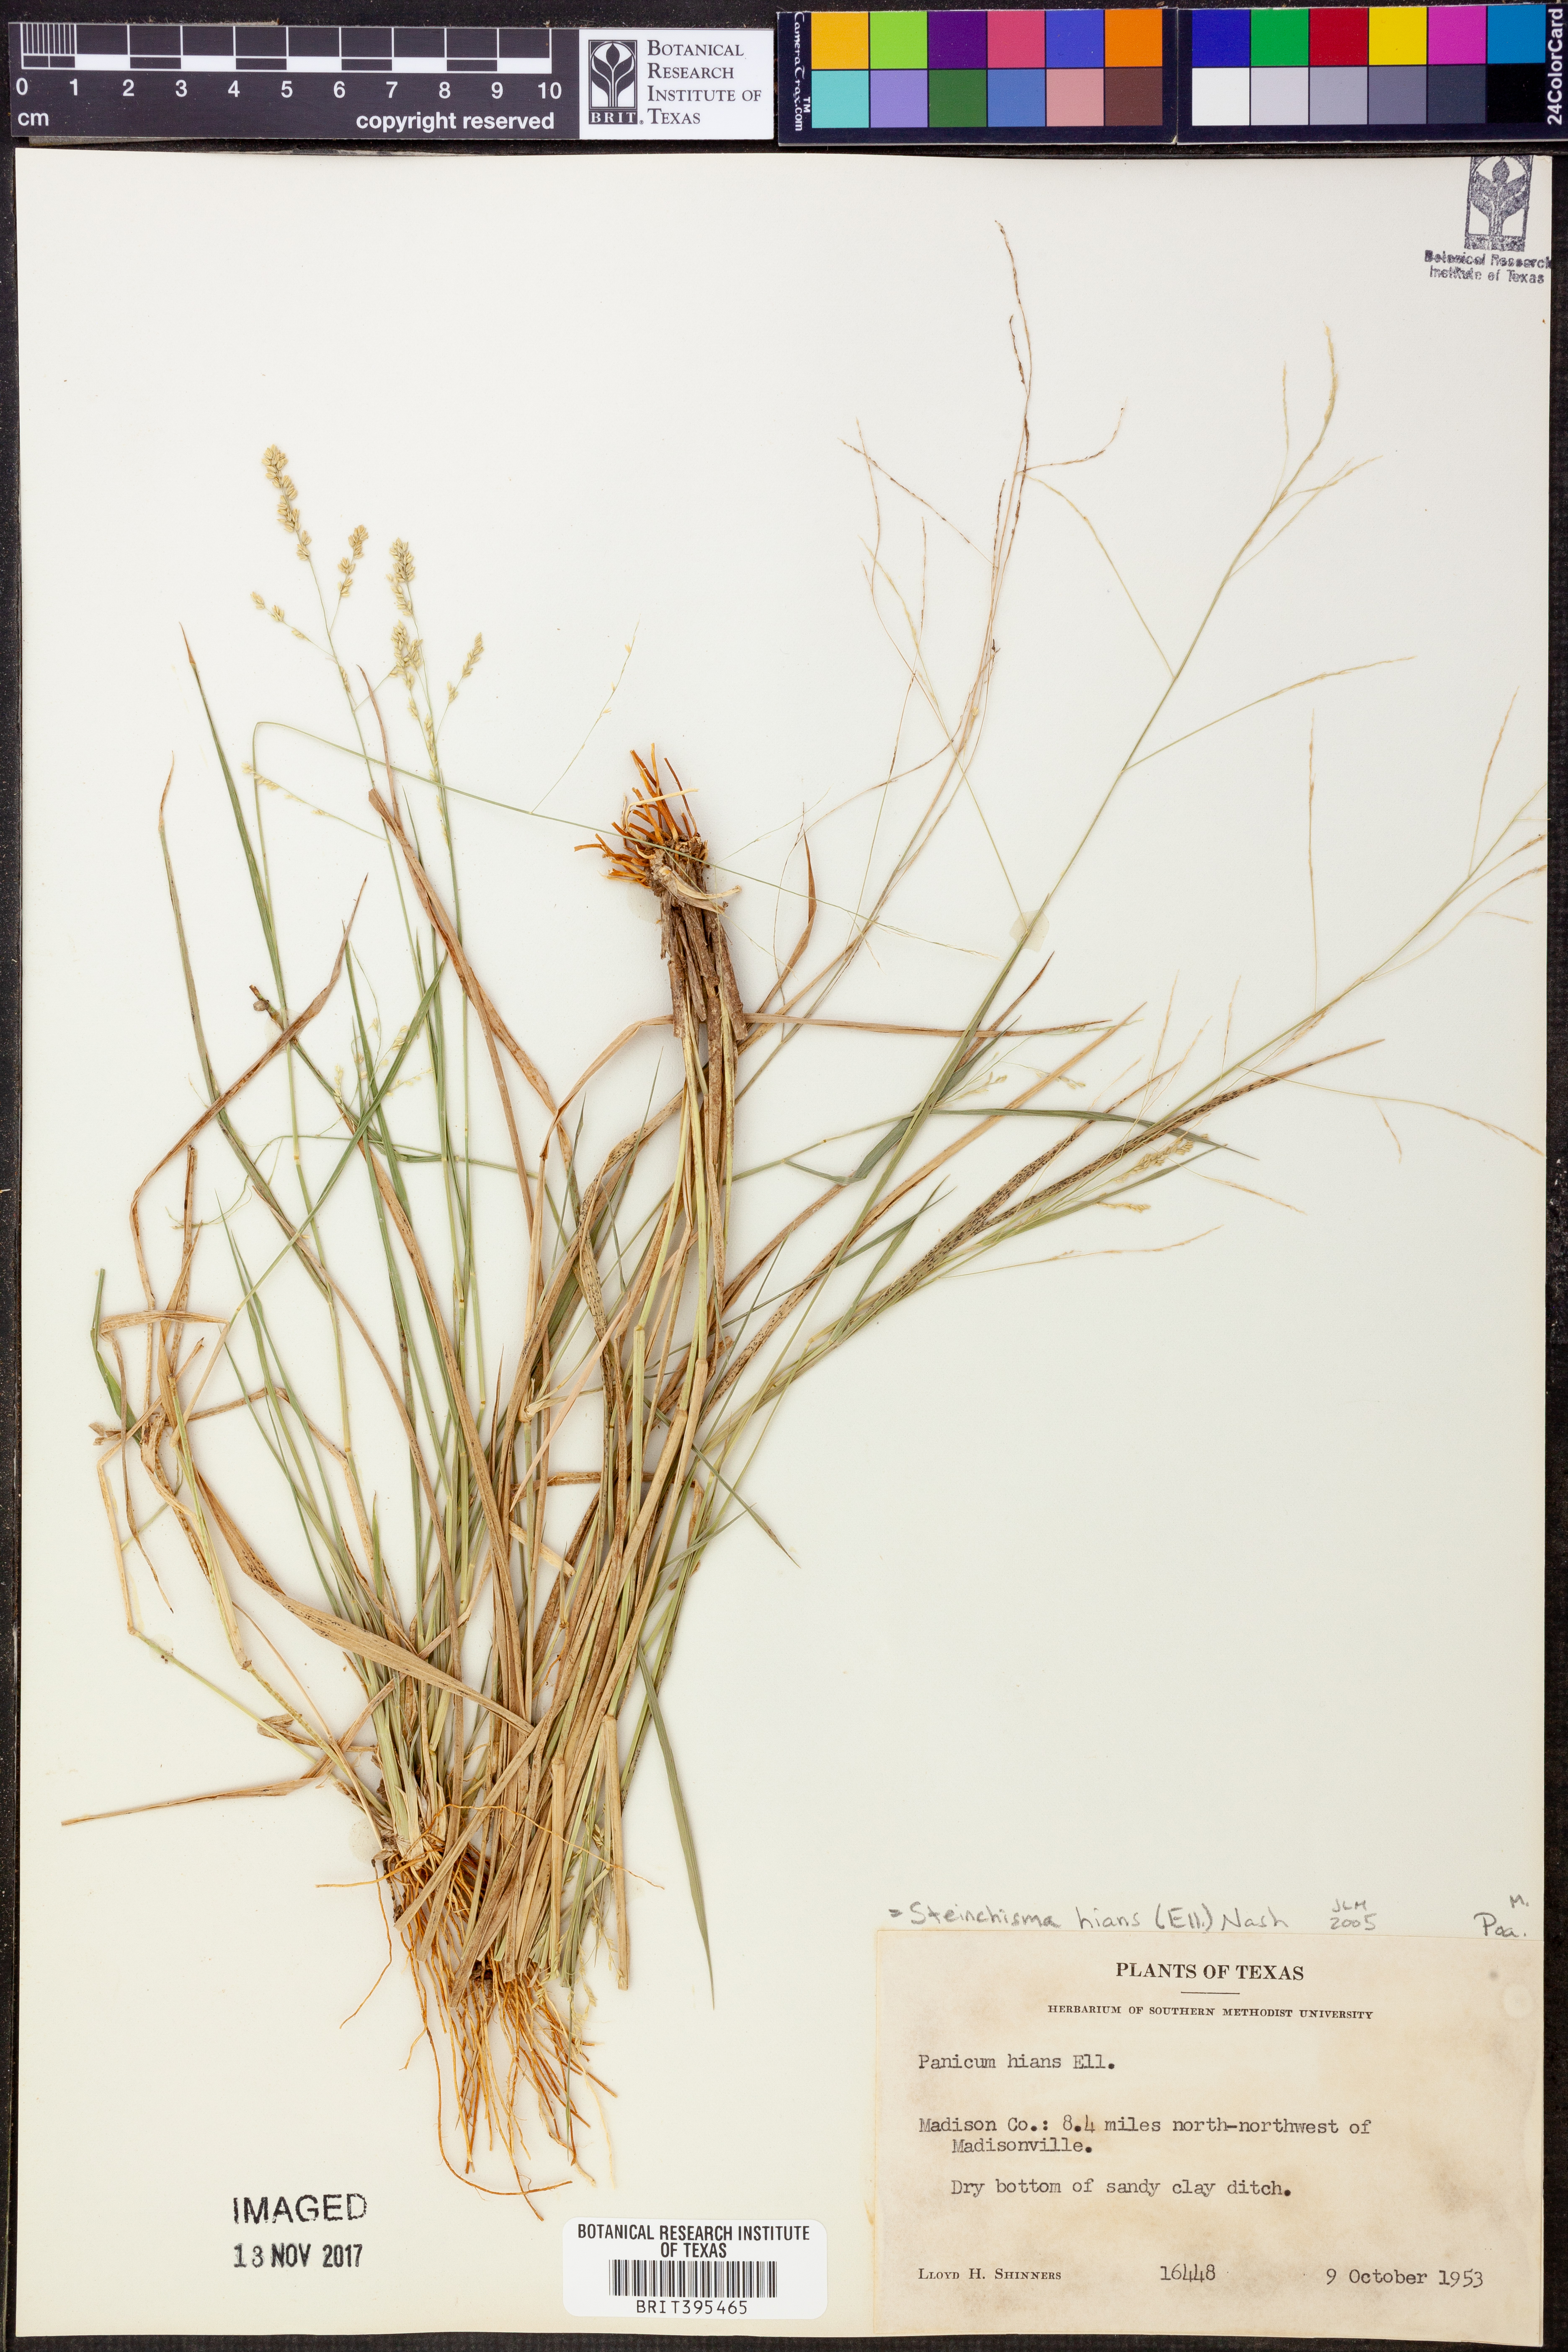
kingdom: Plantae
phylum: Tracheophyta
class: Liliopsida
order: Poales
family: Poaceae
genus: Steinchisma
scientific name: Steinchisma hians
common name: Gaping panic grass
